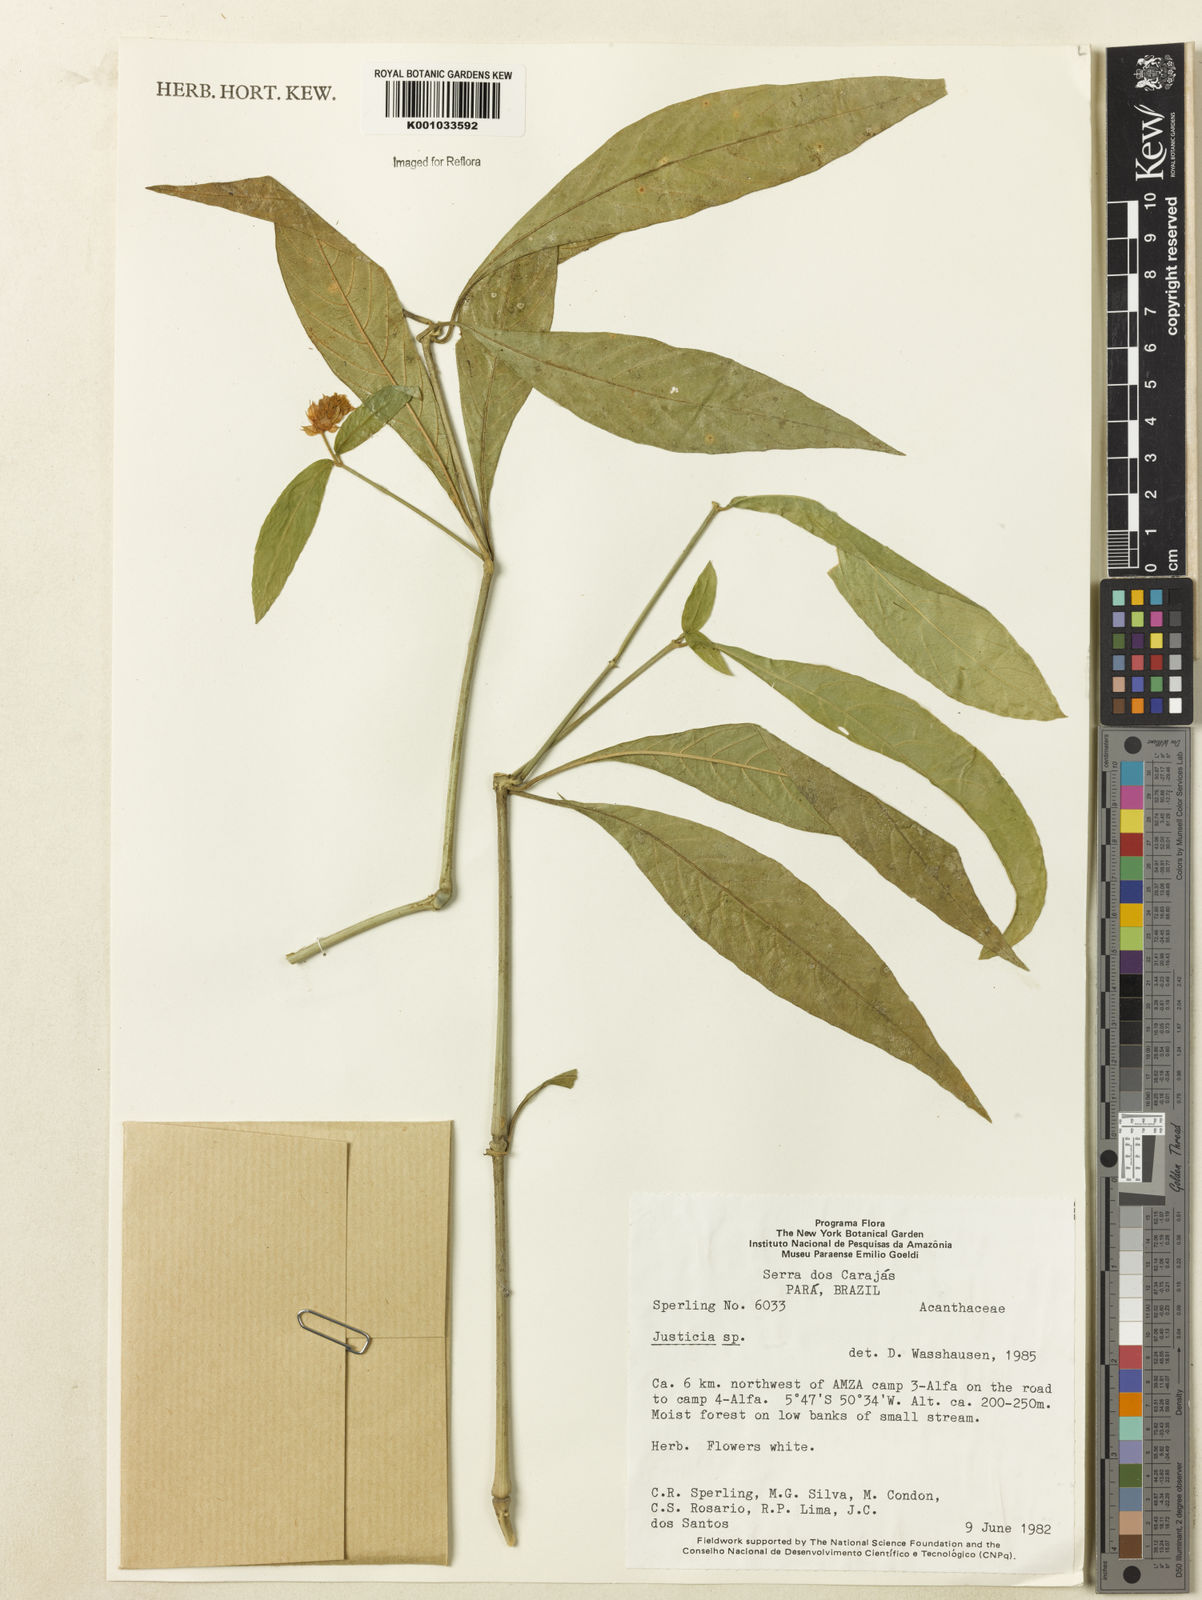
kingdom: Plantae
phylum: Tracheophyta
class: Magnoliopsida
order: Lamiales
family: Acanthaceae
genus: Justicia
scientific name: Justicia
